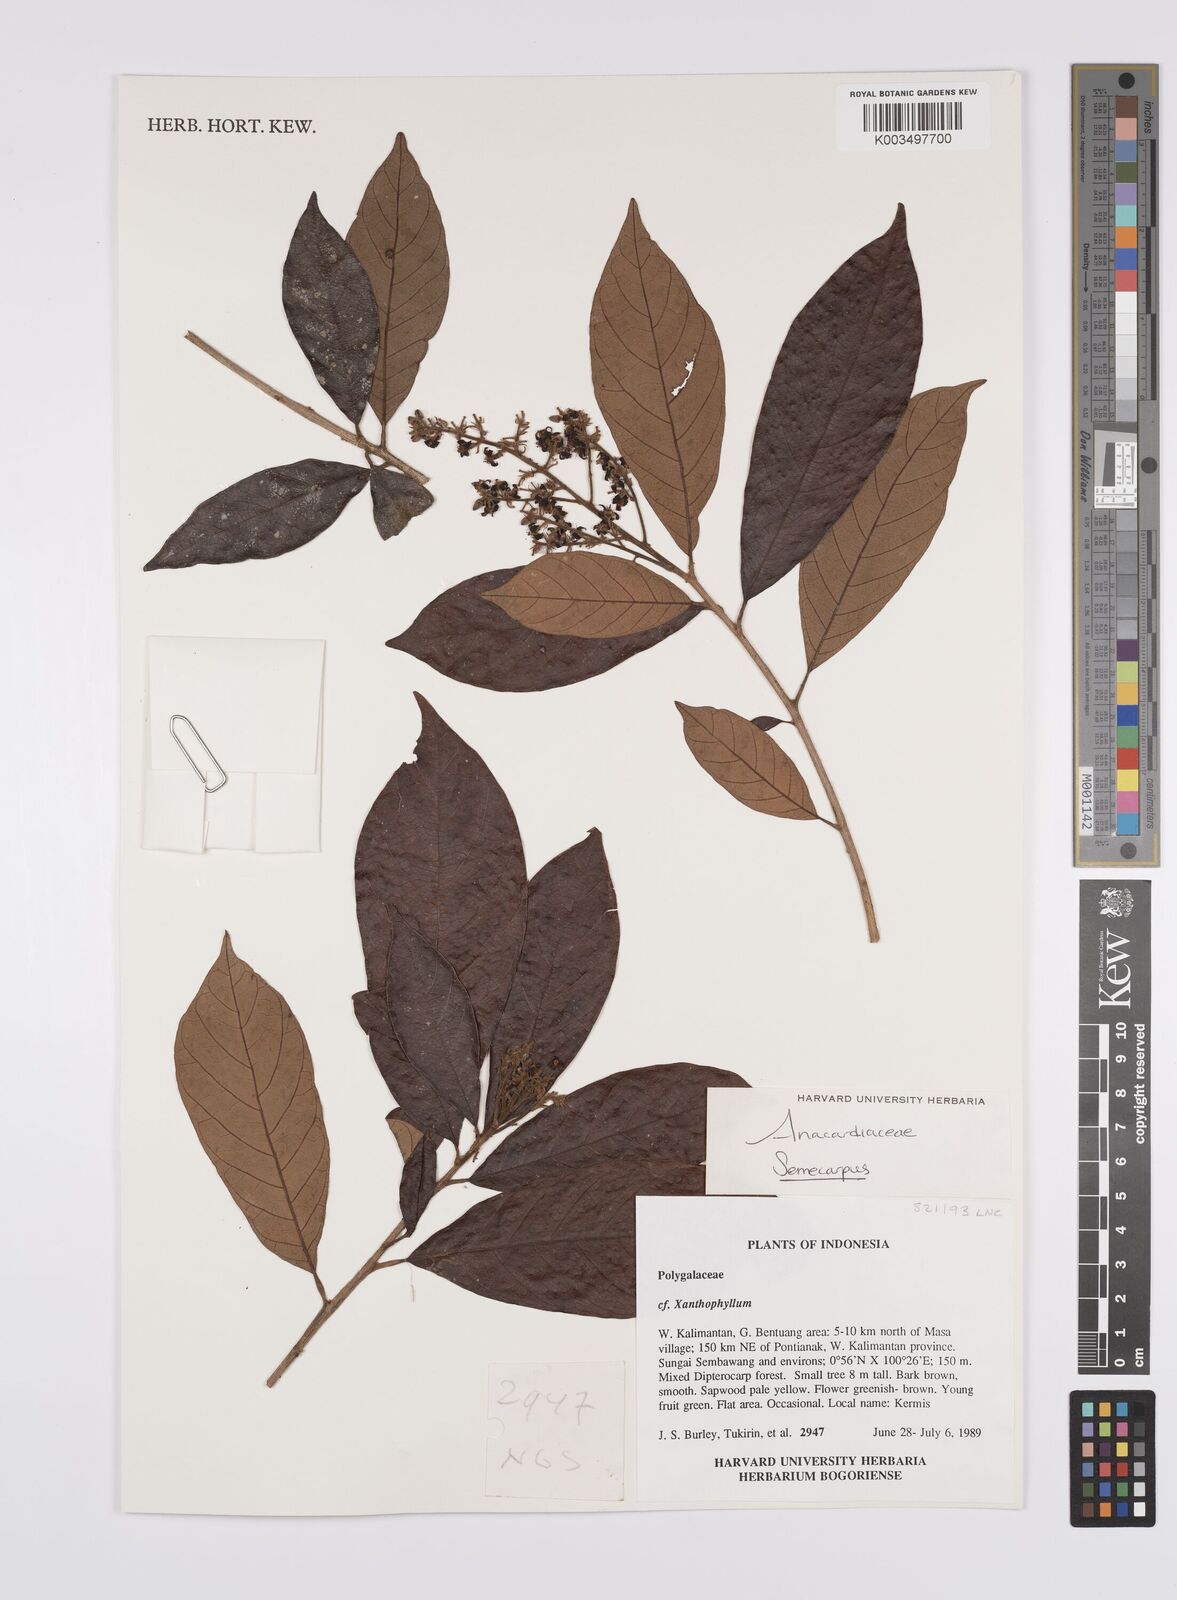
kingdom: Plantae
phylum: Tracheophyta
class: Magnoliopsida
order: Sapindales
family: Anacardiaceae
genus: Semecarpus
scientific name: Semecarpus
